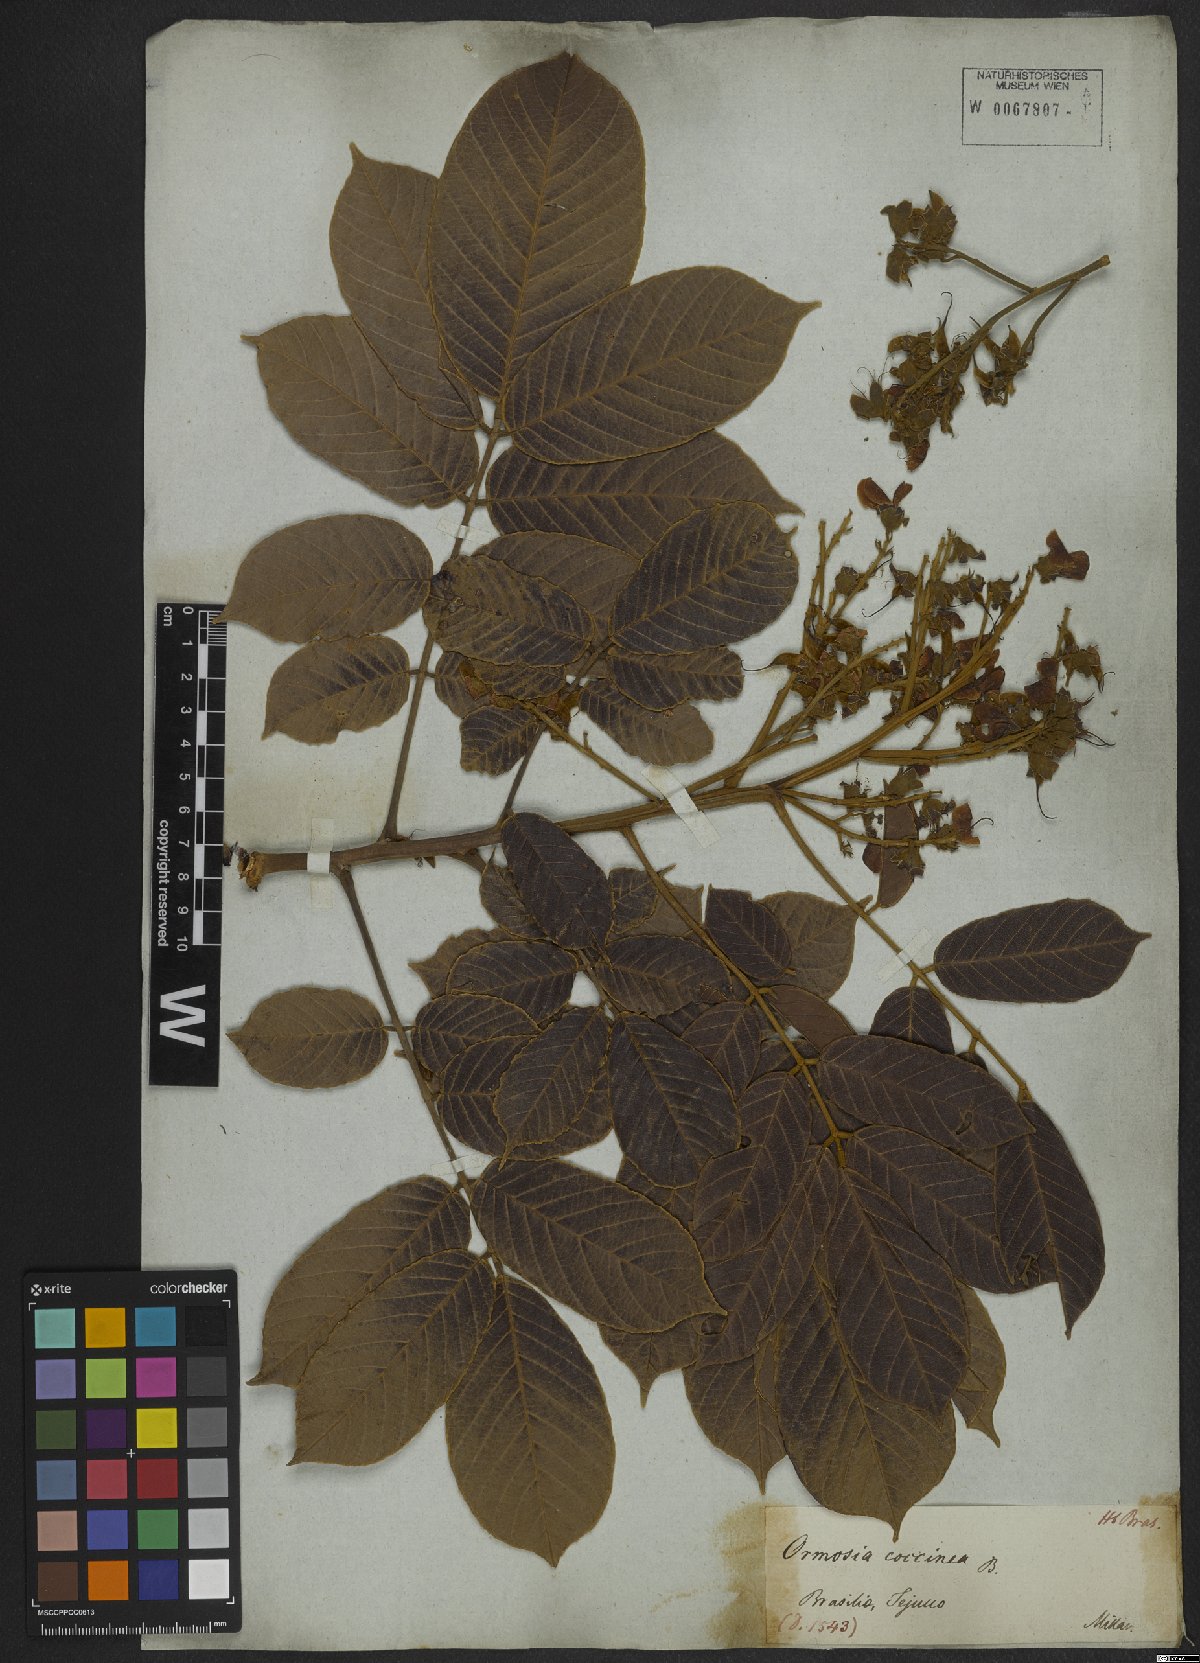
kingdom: Plantae
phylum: Tracheophyta
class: Magnoliopsida
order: Fabales
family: Fabaceae
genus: Ormosia
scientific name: Ormosia coccinea
